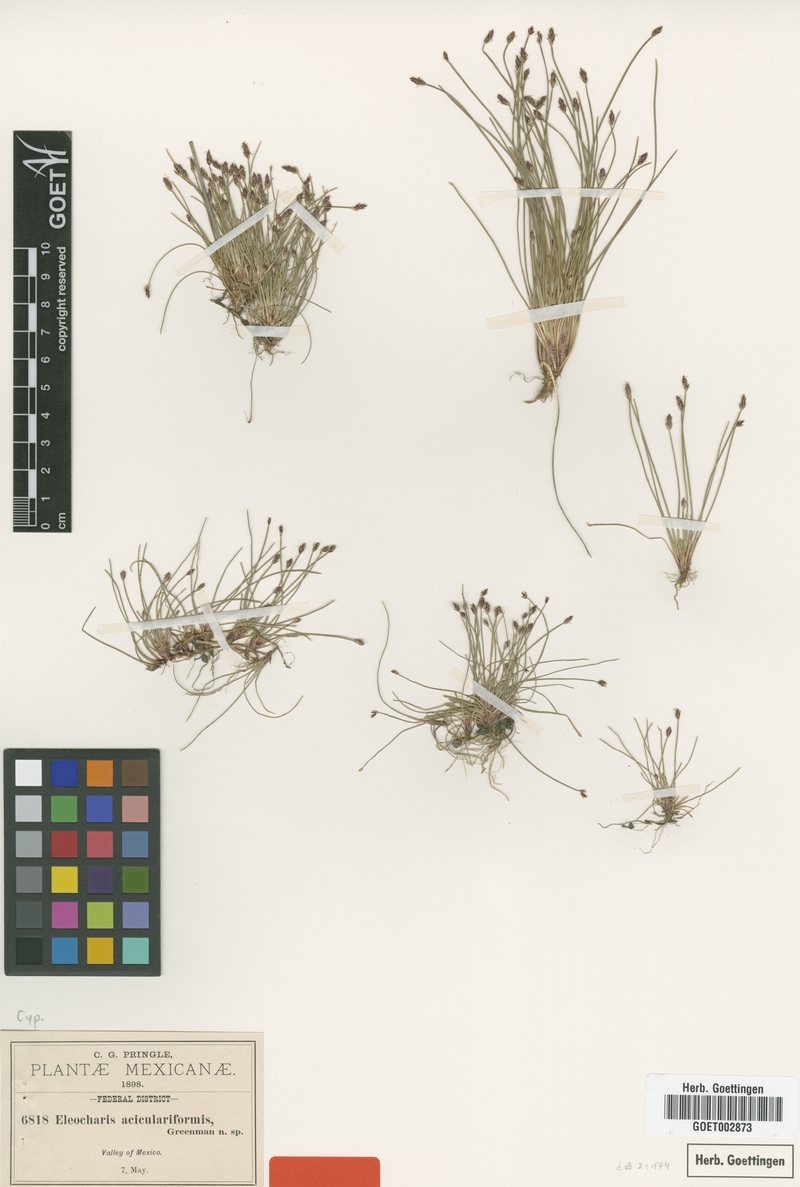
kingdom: Plantae
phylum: Tracheophyta
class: Liliopsida
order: Poales
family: Cyperaceae
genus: Eleocharis
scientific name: Eleocharis bonariensis
